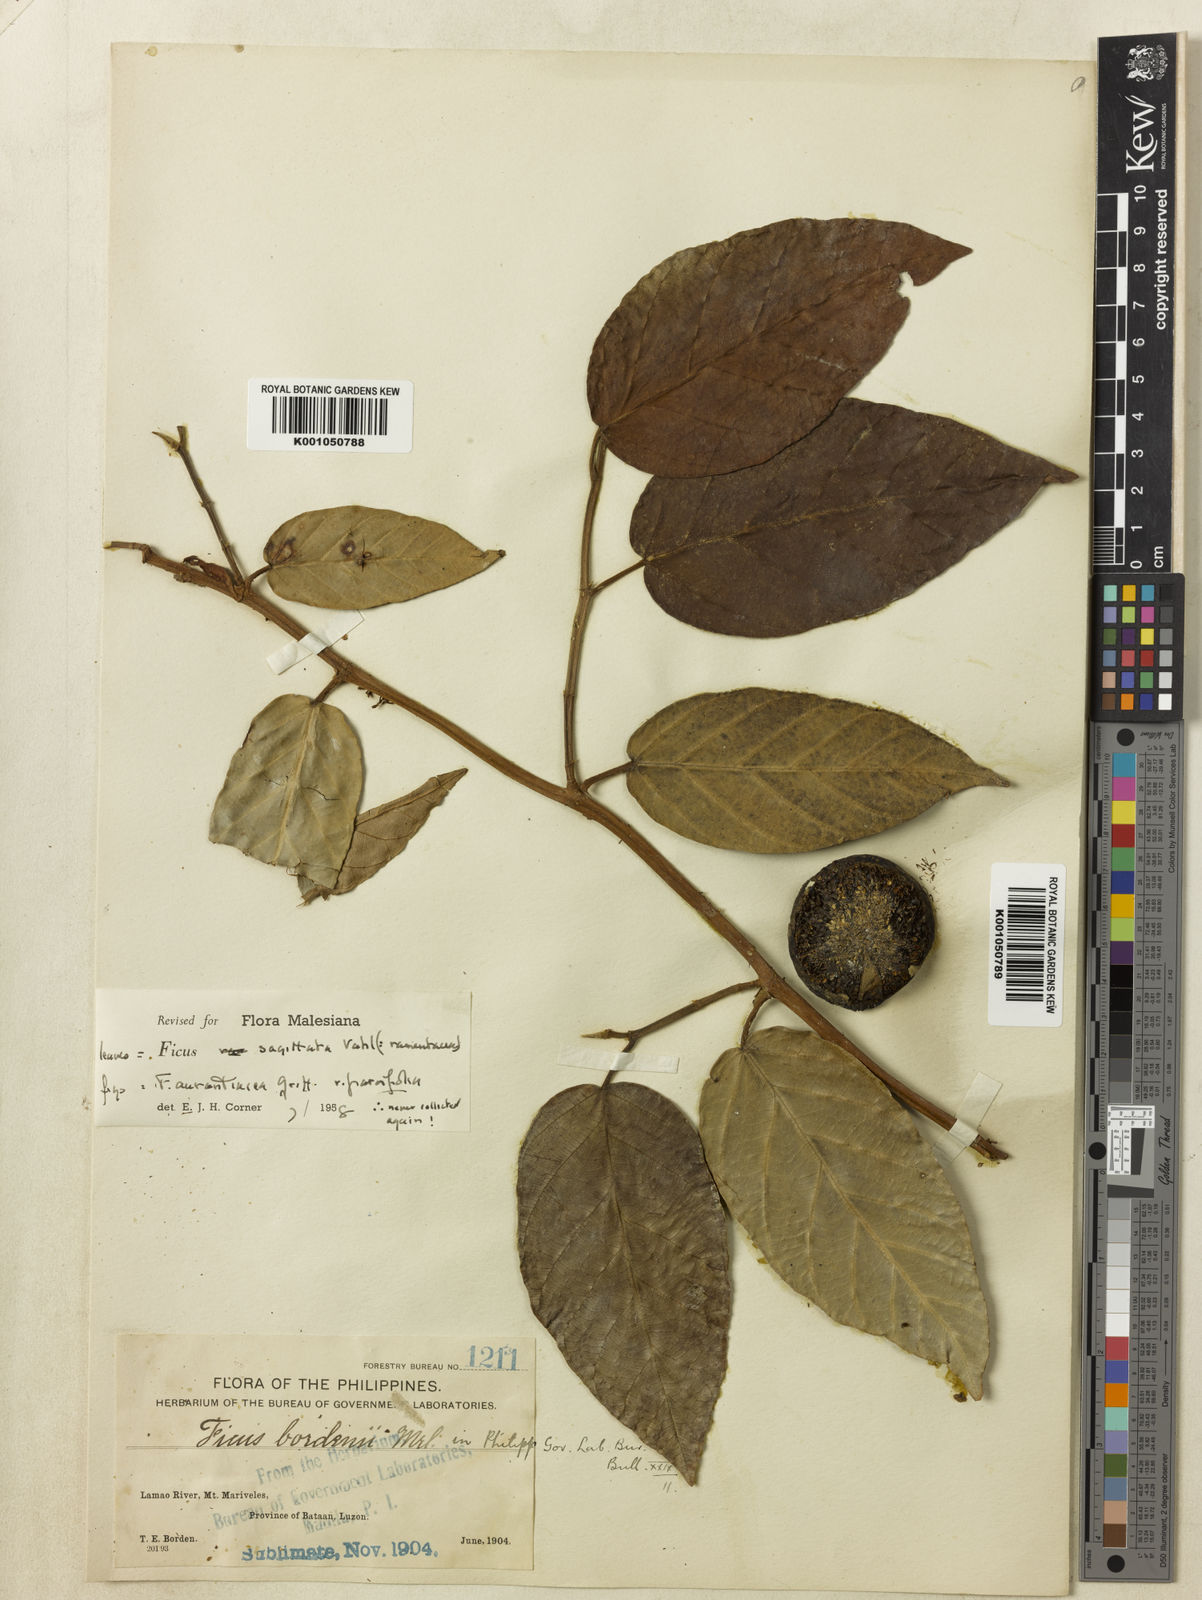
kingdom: Plantae
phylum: Tracheophyta
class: Magnoliopsida
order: Rosales
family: Moraceae
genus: Ficus
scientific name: Ficus sagittata
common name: Trailing fig
